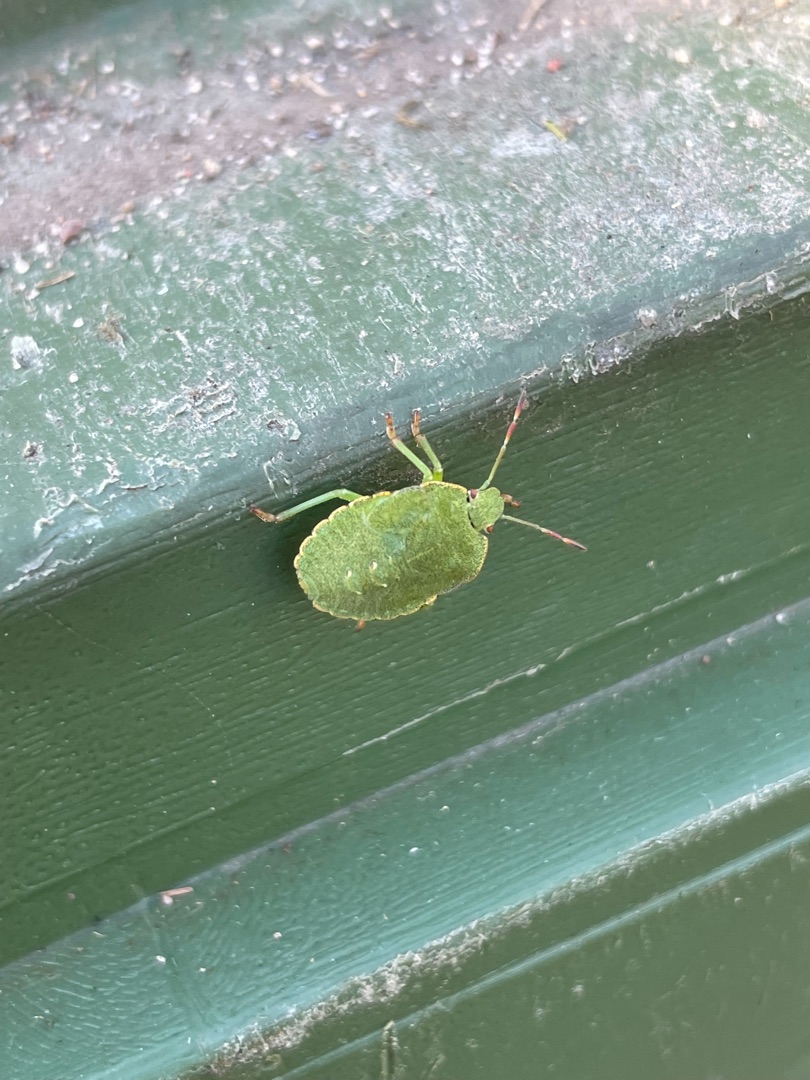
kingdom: Animalia
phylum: Arthropoda
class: Insecta
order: Hemiptera
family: Pentatomidae
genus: Palomena
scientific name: Palomena prasina
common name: Grøn bredtæge
